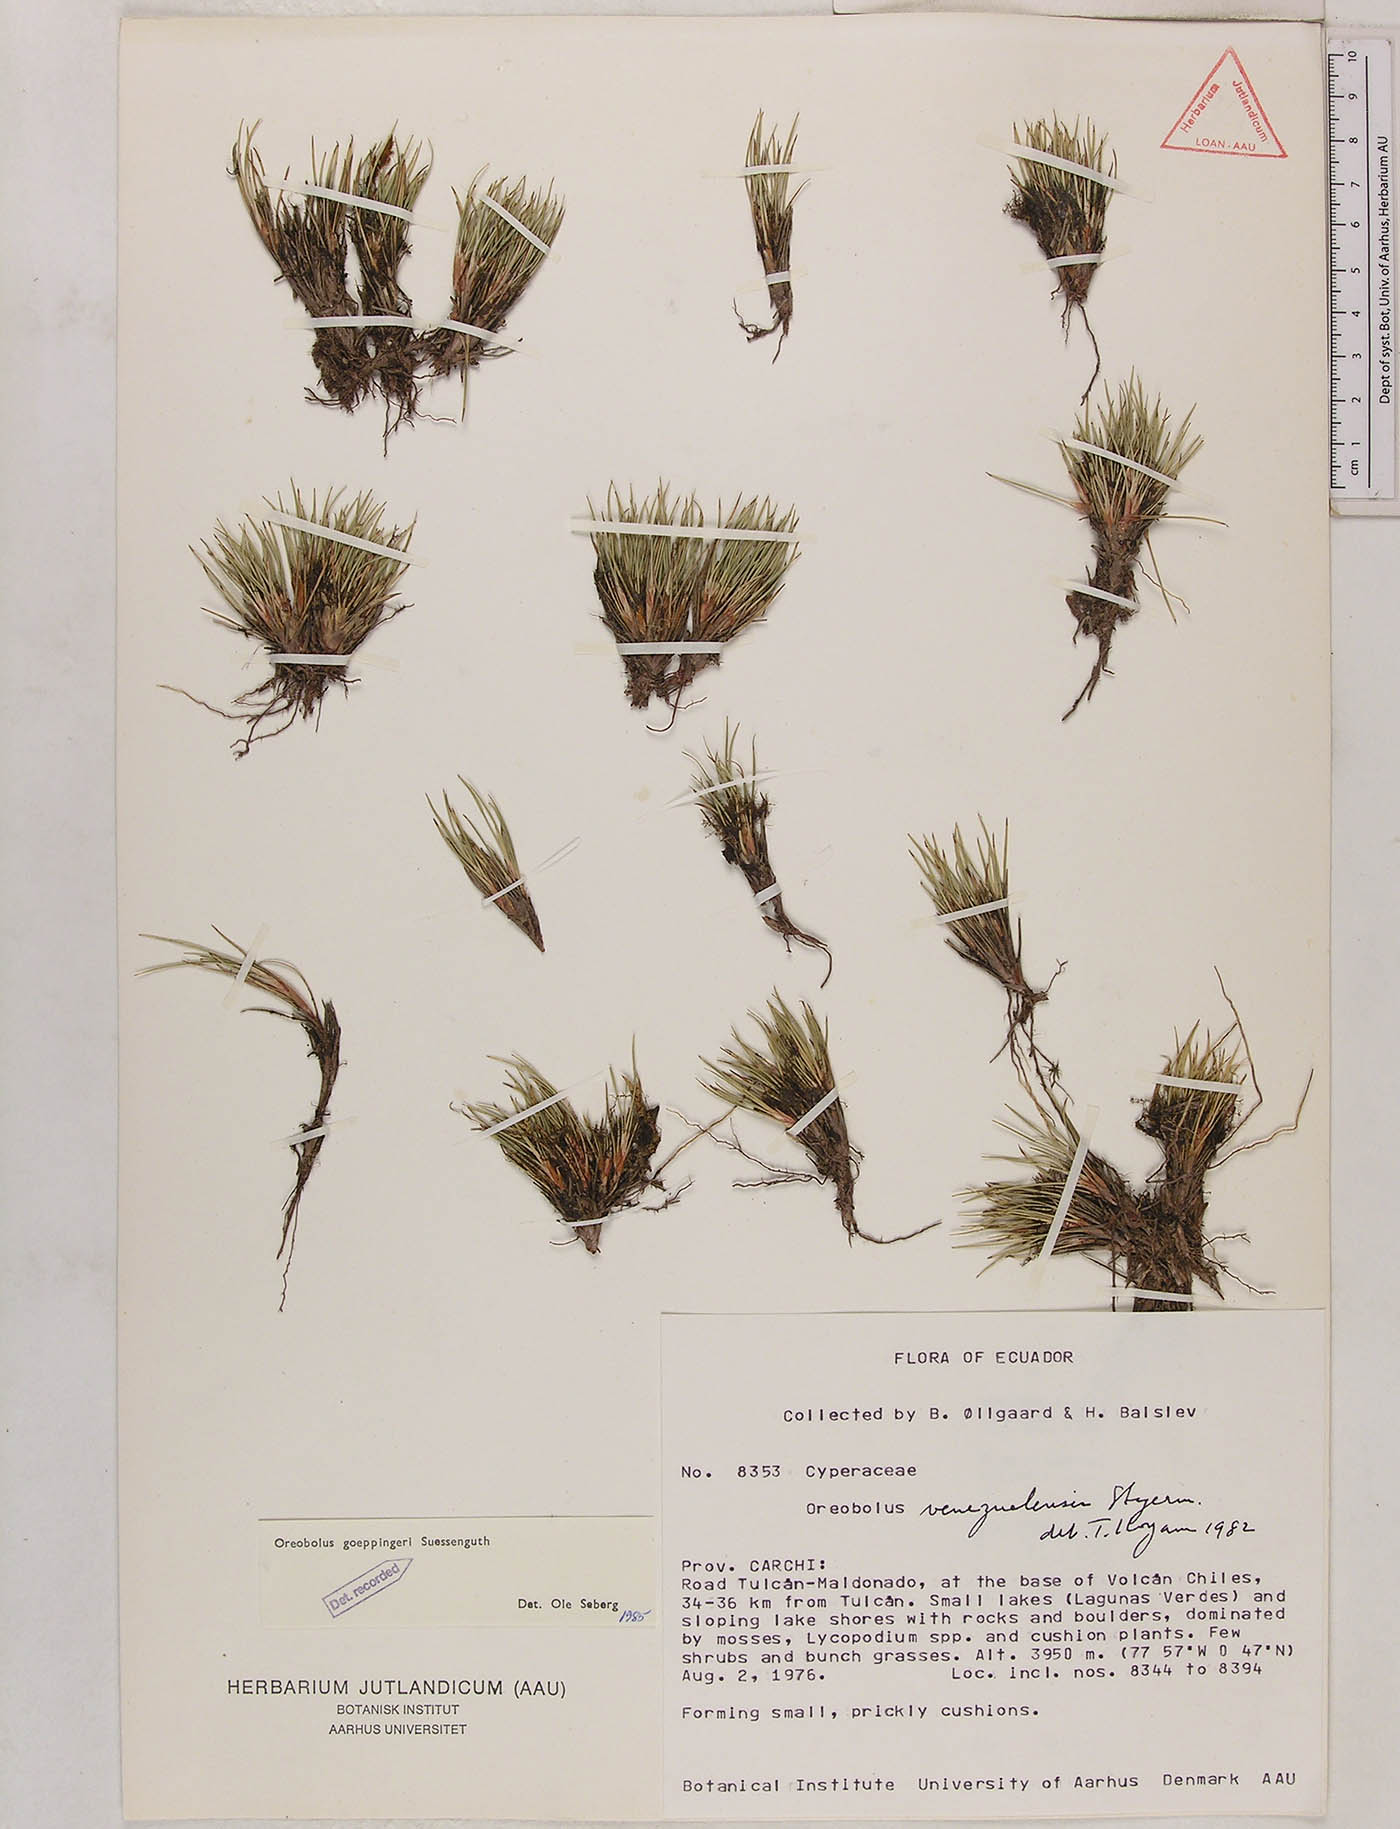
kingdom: Plantae
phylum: Tracheophyta
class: Liliopsida
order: Poales
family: Cyperaceae
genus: Oreobolus
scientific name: Oreobolus goeppingeri
